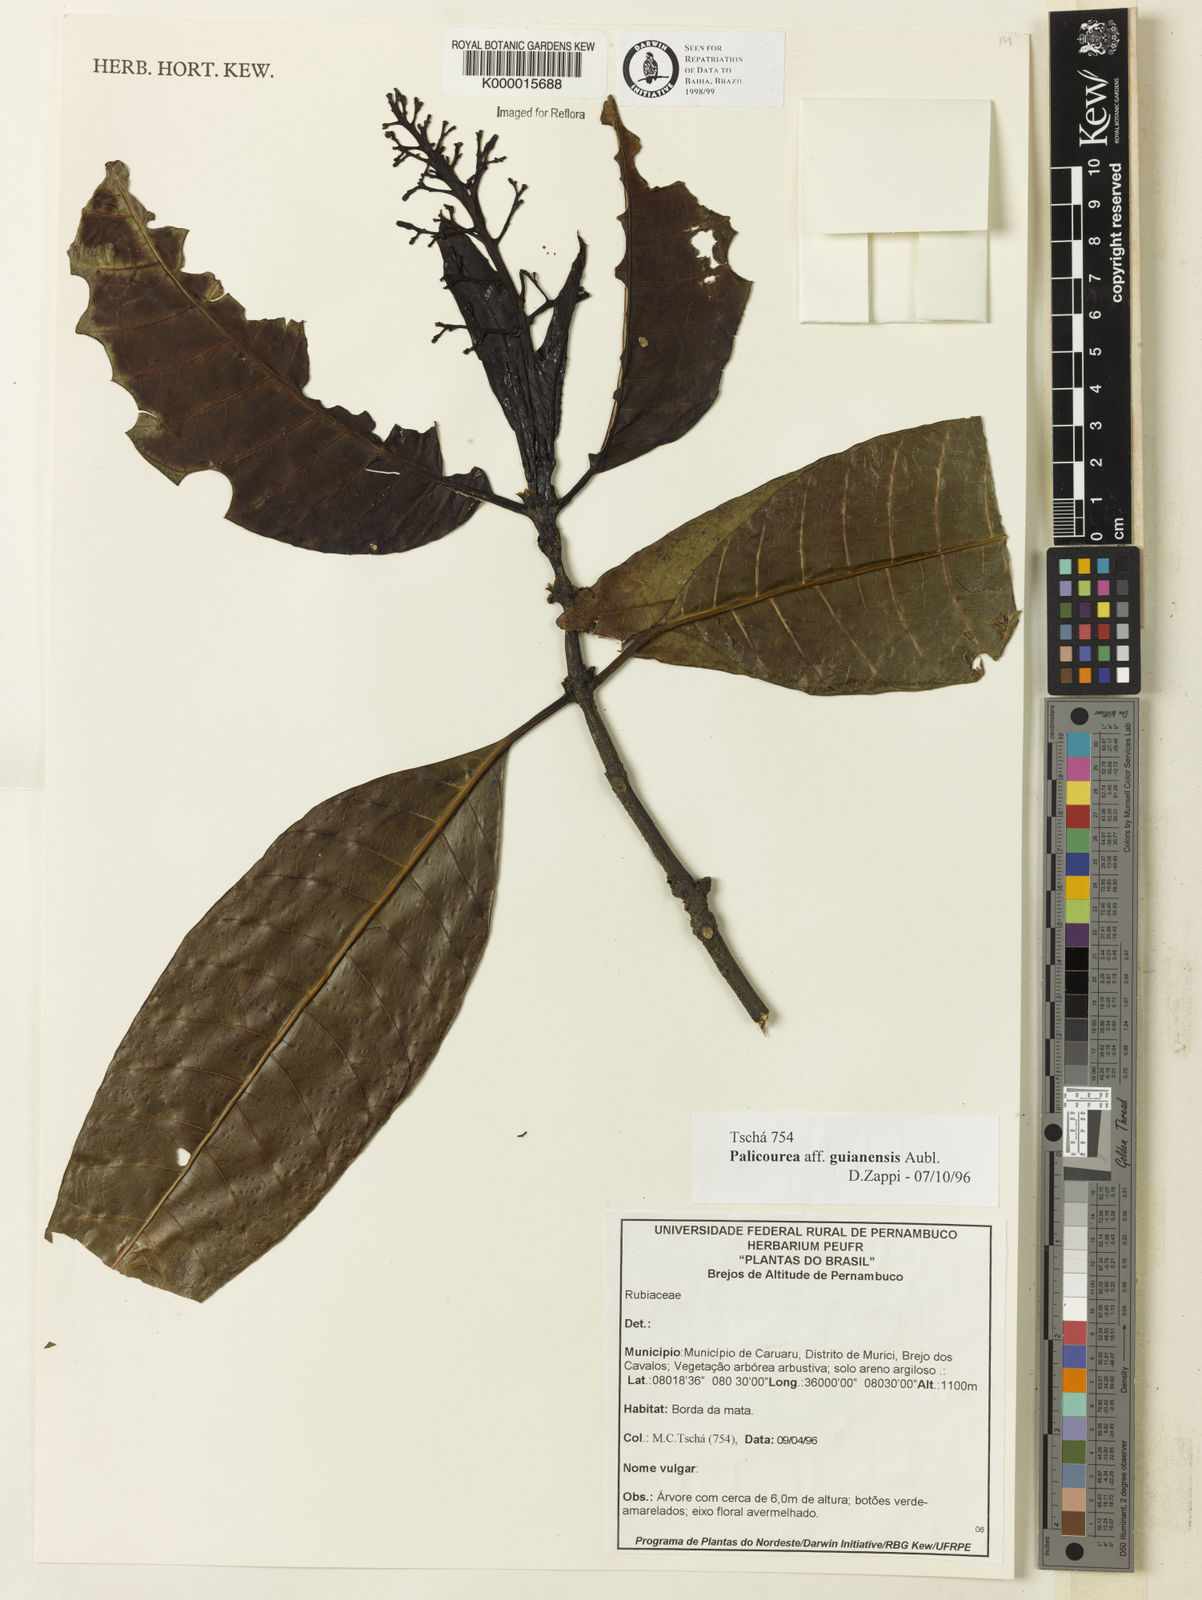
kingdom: Plantae
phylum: Tracheophyta
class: Magnoliopsida
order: Gentianales
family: Rubiaceae
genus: Palicourea
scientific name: Palicourea guianensis
